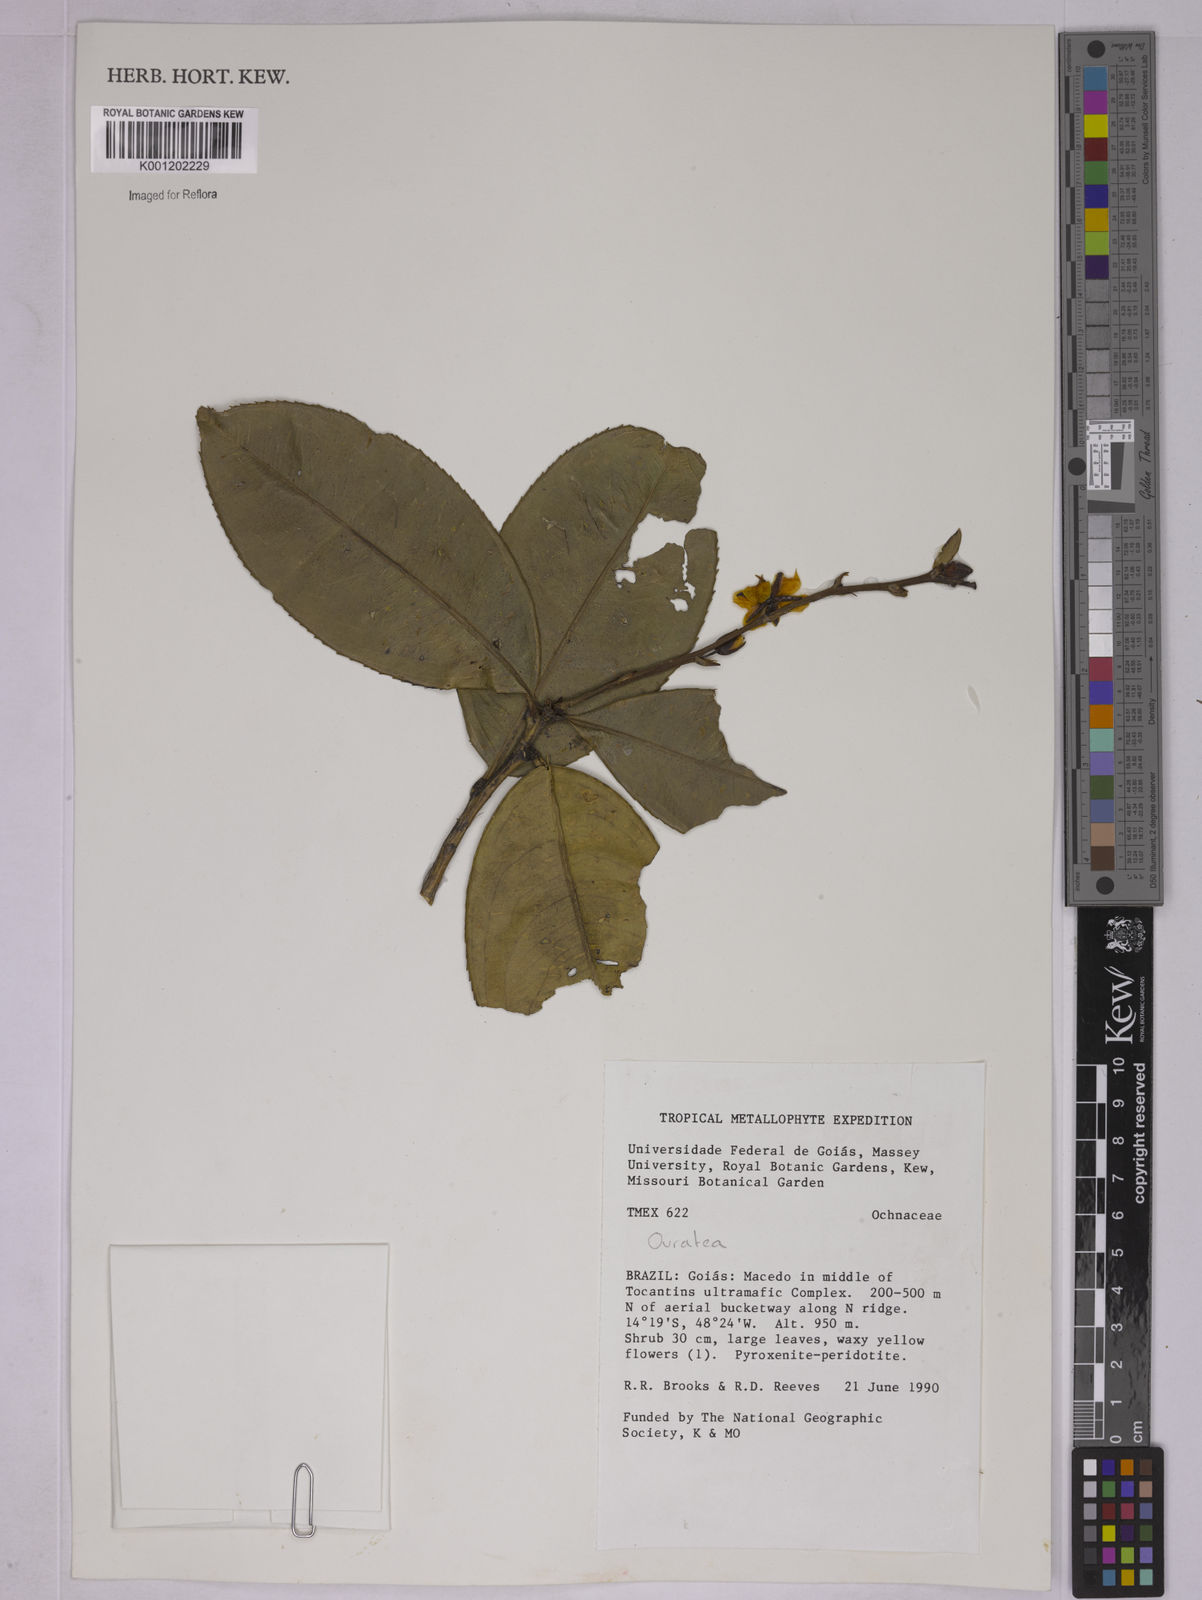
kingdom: Plantae
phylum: Tracheophyta
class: Magnoliopsida
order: Malpighiales
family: Ochnaceae
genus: Ouratea
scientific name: Ouratea
